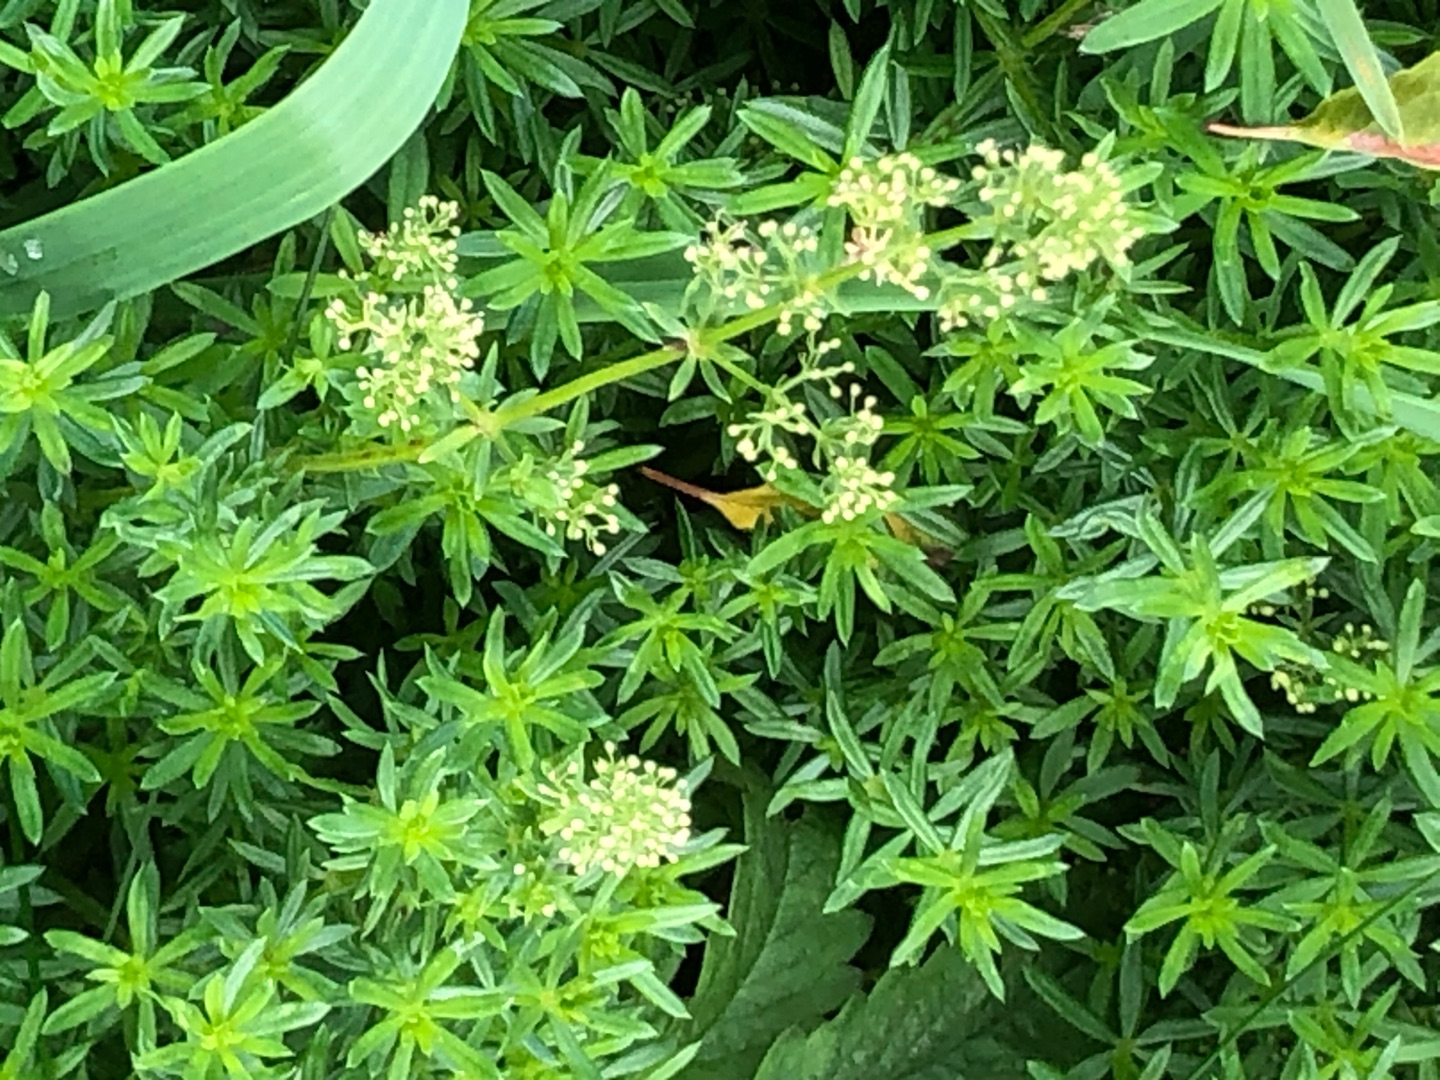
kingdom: Plantae
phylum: Tracheophyta
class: Magnoliopsida
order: Gentianales
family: Rubiaceae
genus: Galium
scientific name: Galium mollugo
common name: Hvid snerre
